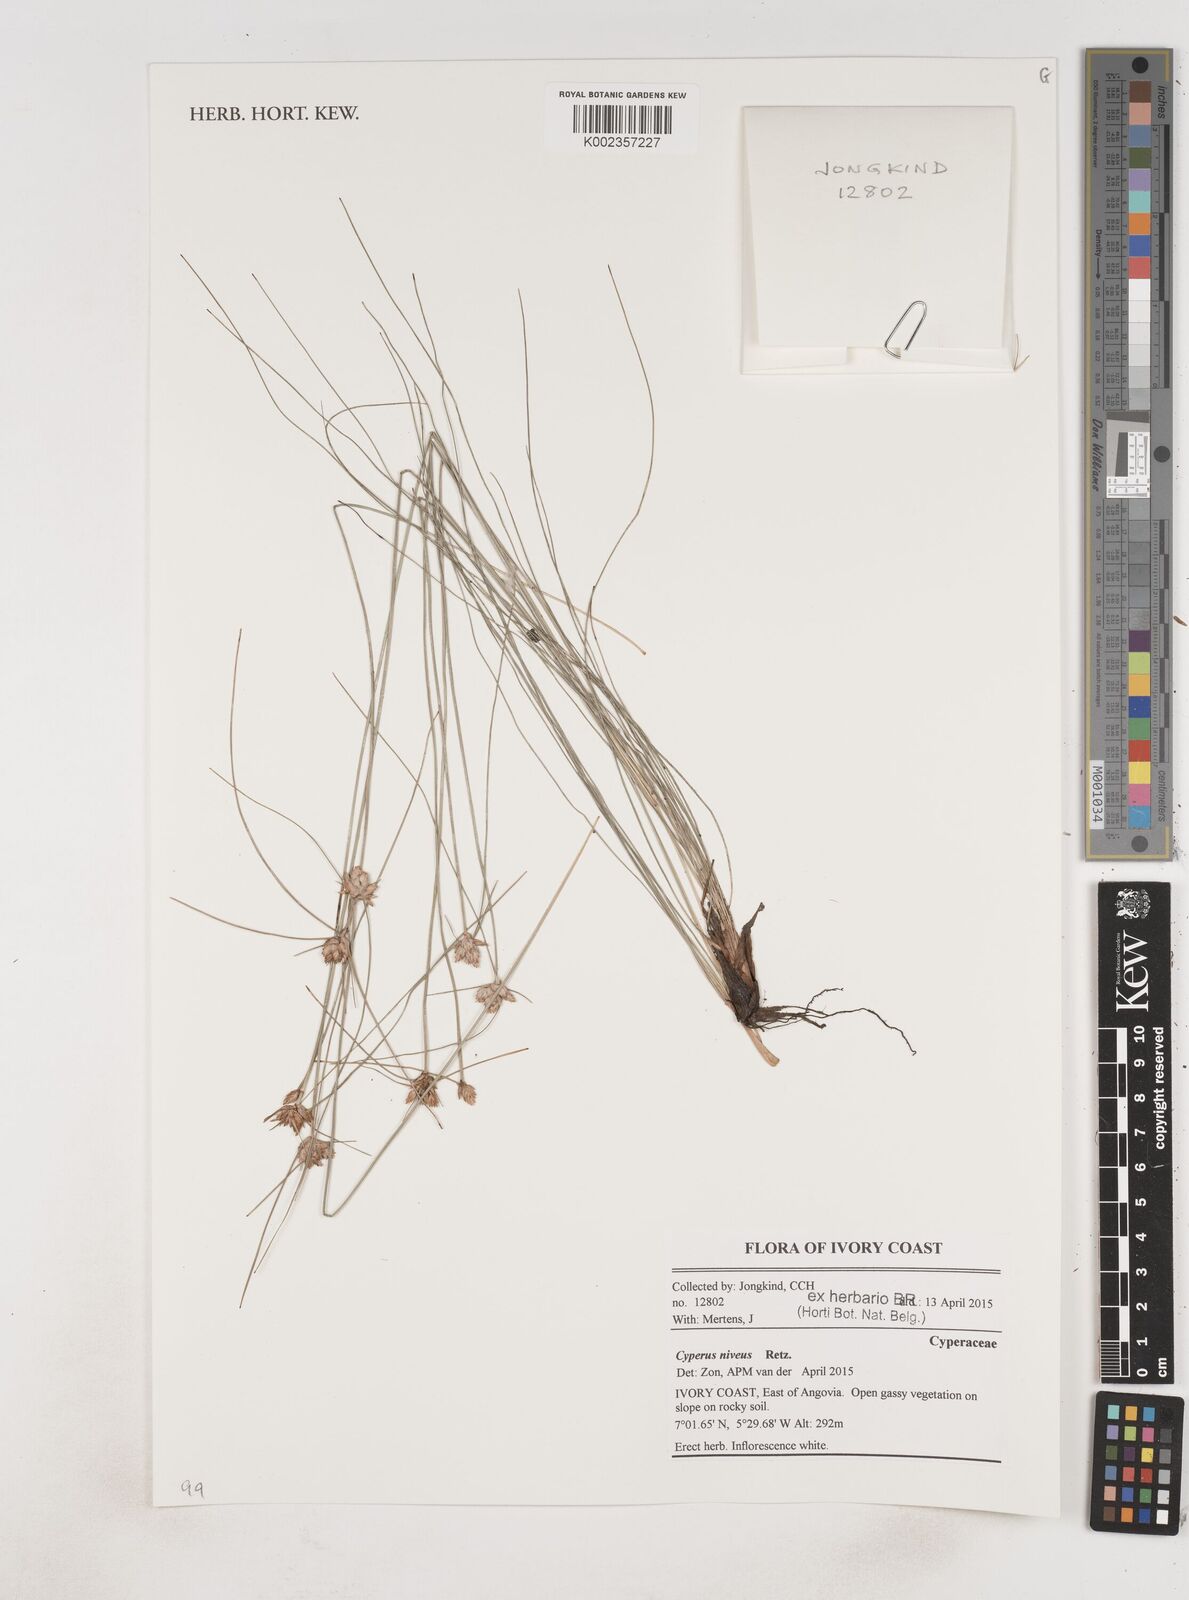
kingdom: Plantae
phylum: Tracheophyta
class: Liliopsida
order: Poales
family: Cyperaceae
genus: Cyperus
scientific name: Cyperus niveus
